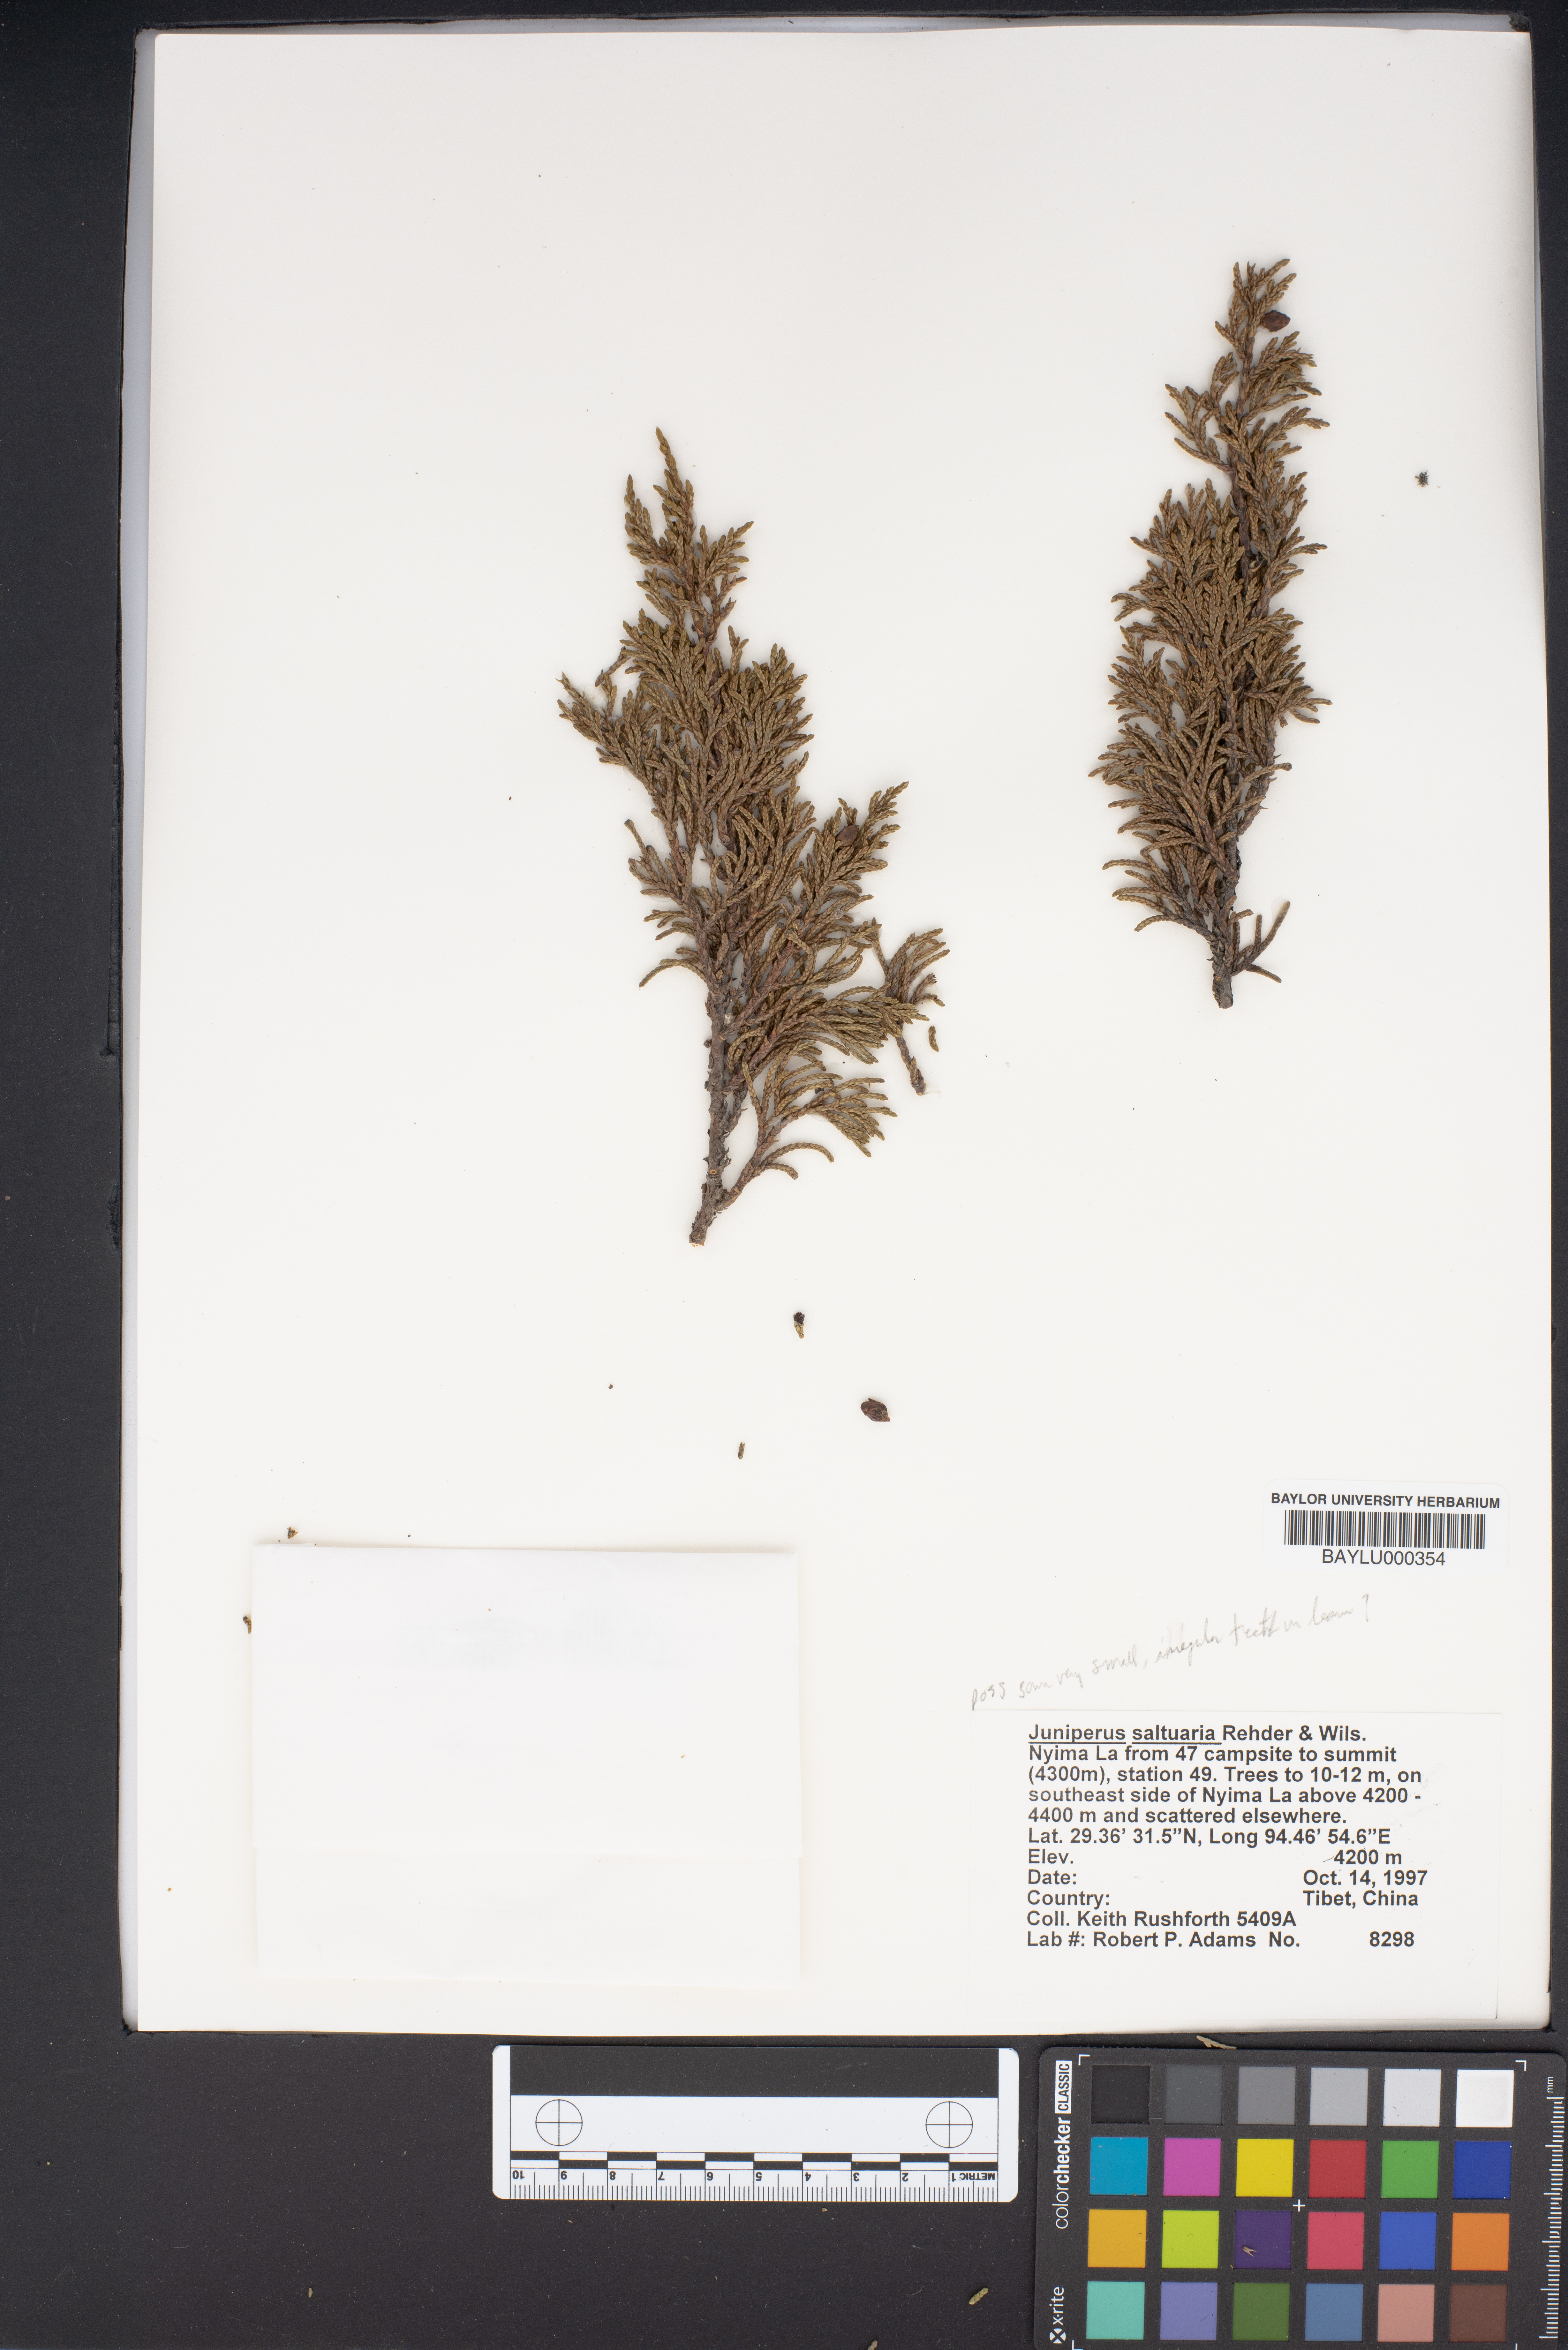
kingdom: Plantae
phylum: Tracheophyta
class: Pinopsida
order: Pinales
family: Cupressaceae
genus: Juniperus
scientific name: Juniperus saltuaria
